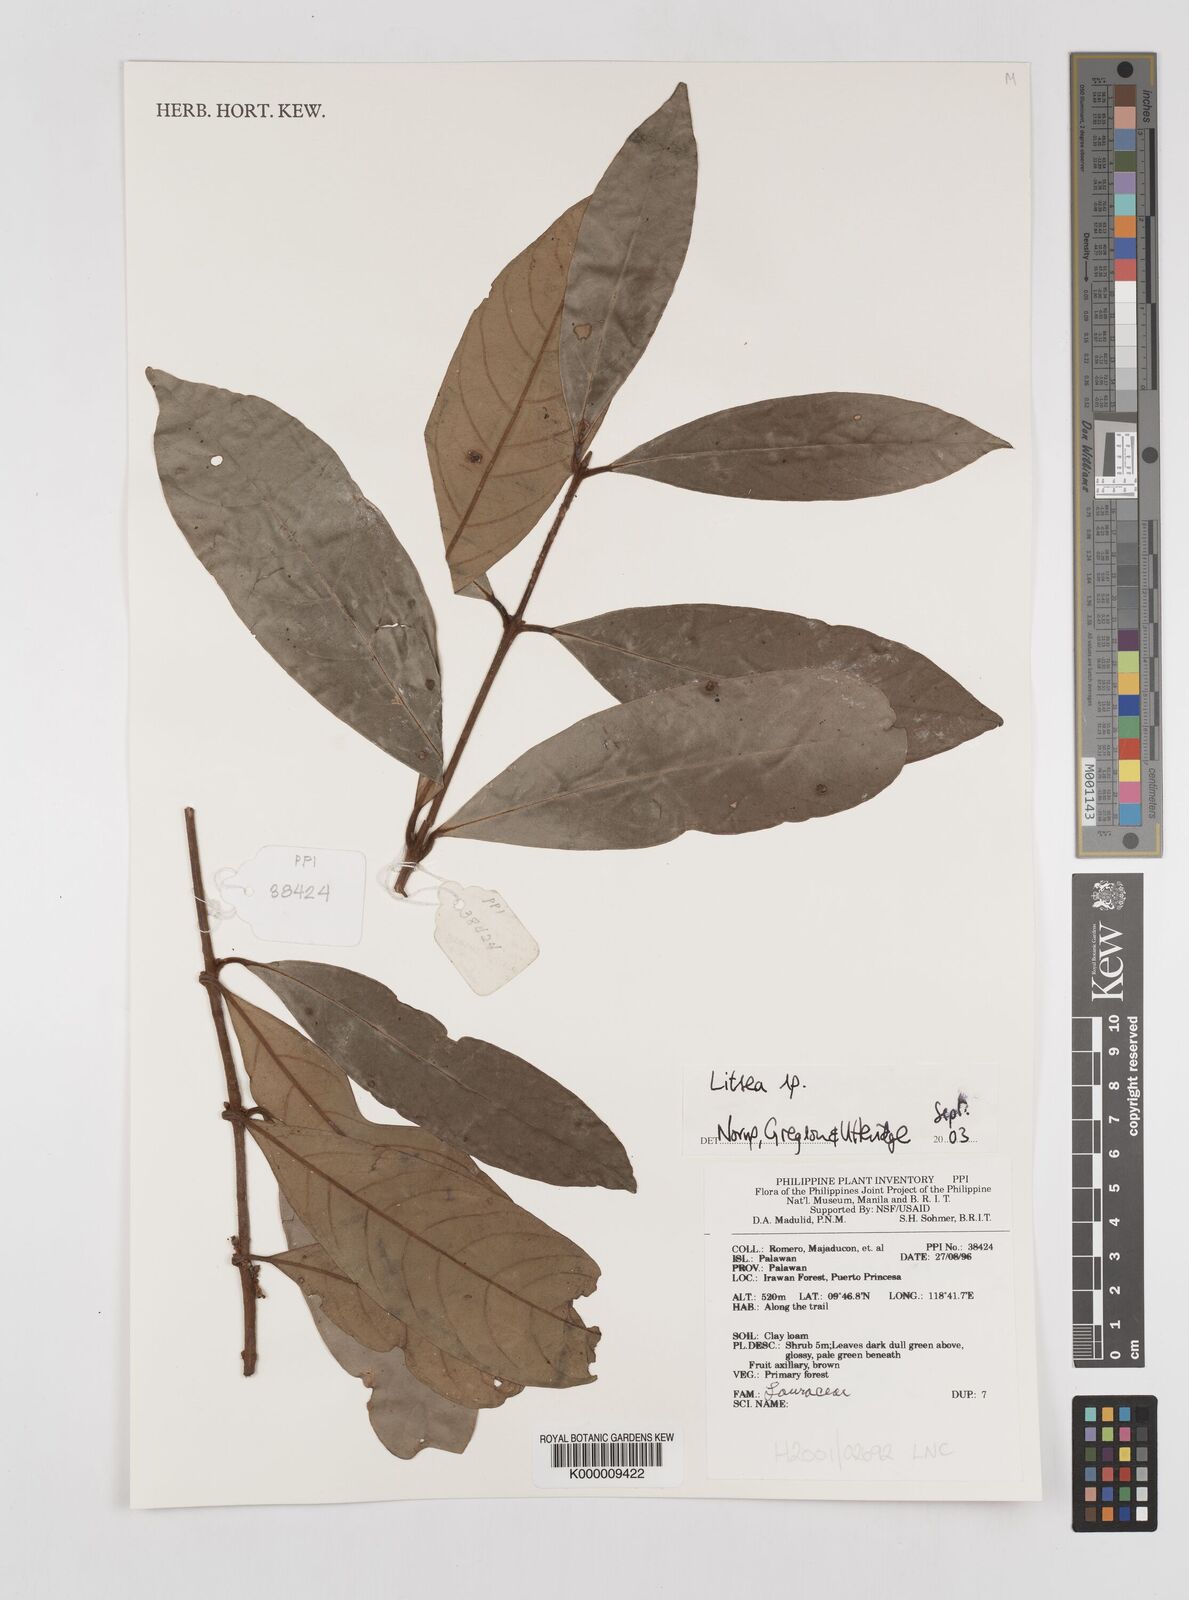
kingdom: Plantae
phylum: Tracheophyta
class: Magnoliopsida
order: Laurales
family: Lauraceae
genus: Litsea
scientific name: Litsea
